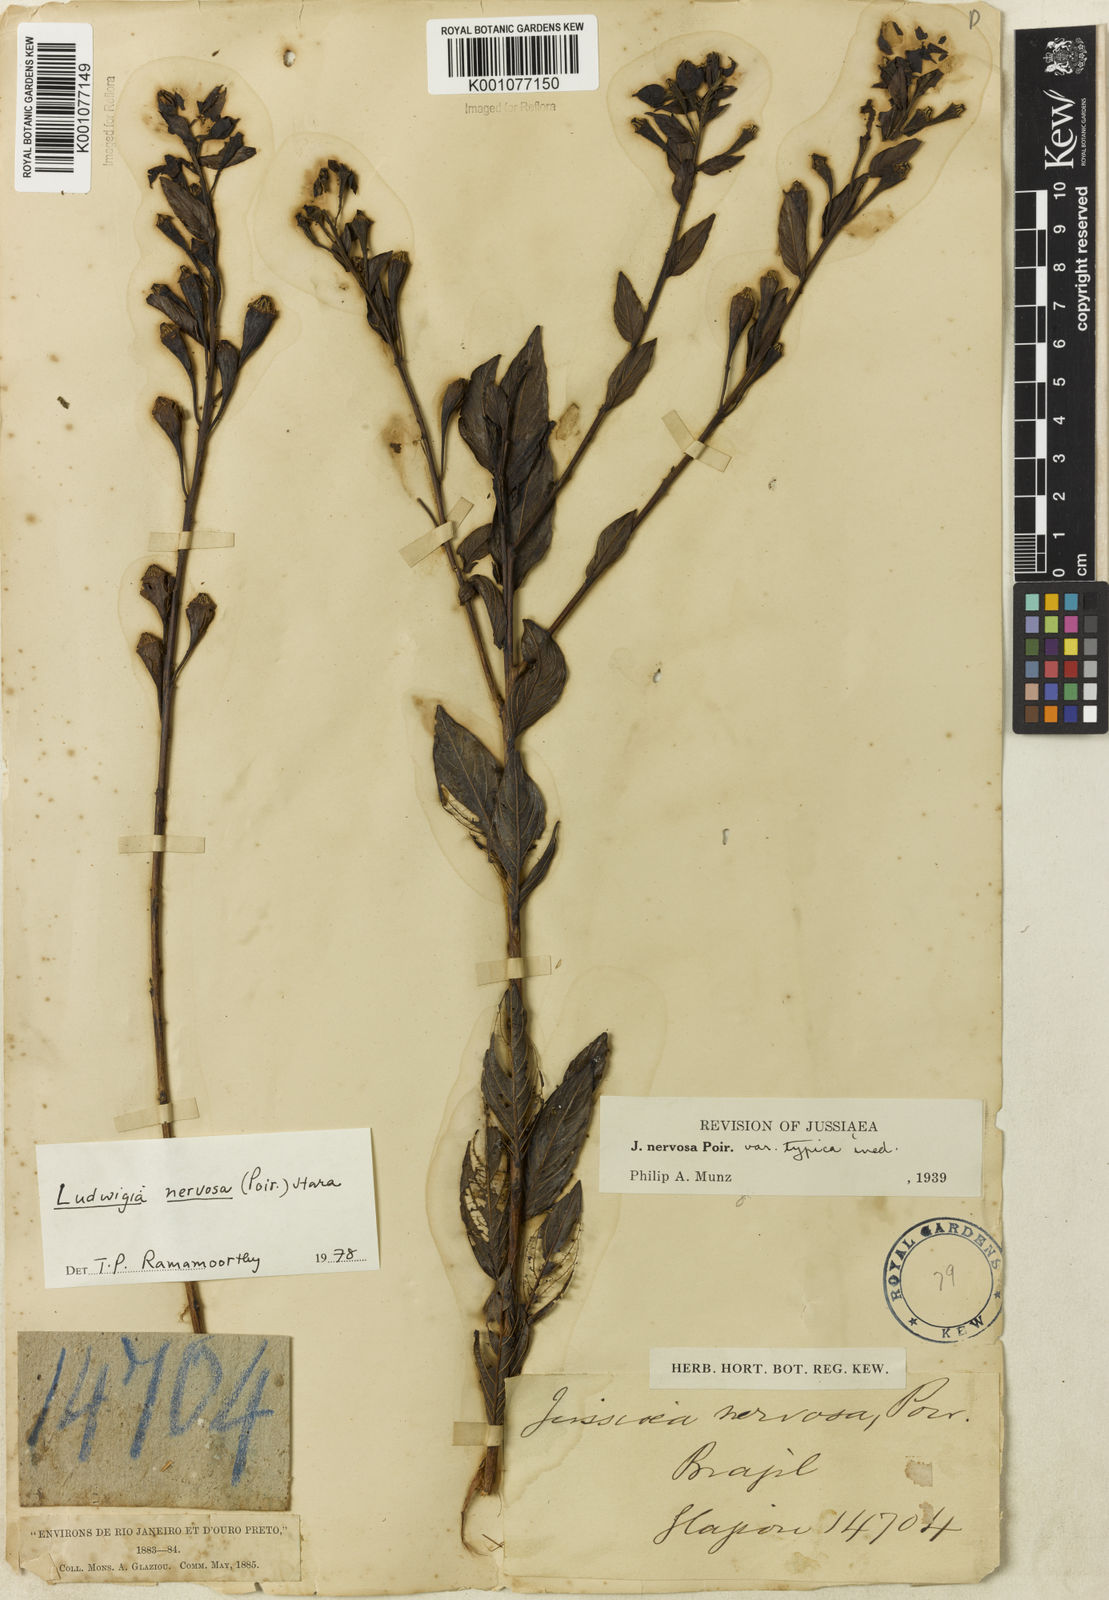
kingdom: Plantae
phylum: Tracheophyta
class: Magnoliopsida
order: Myrtales
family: Onagraceae
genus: Ludwigia
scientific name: Ludwigia nervosa
